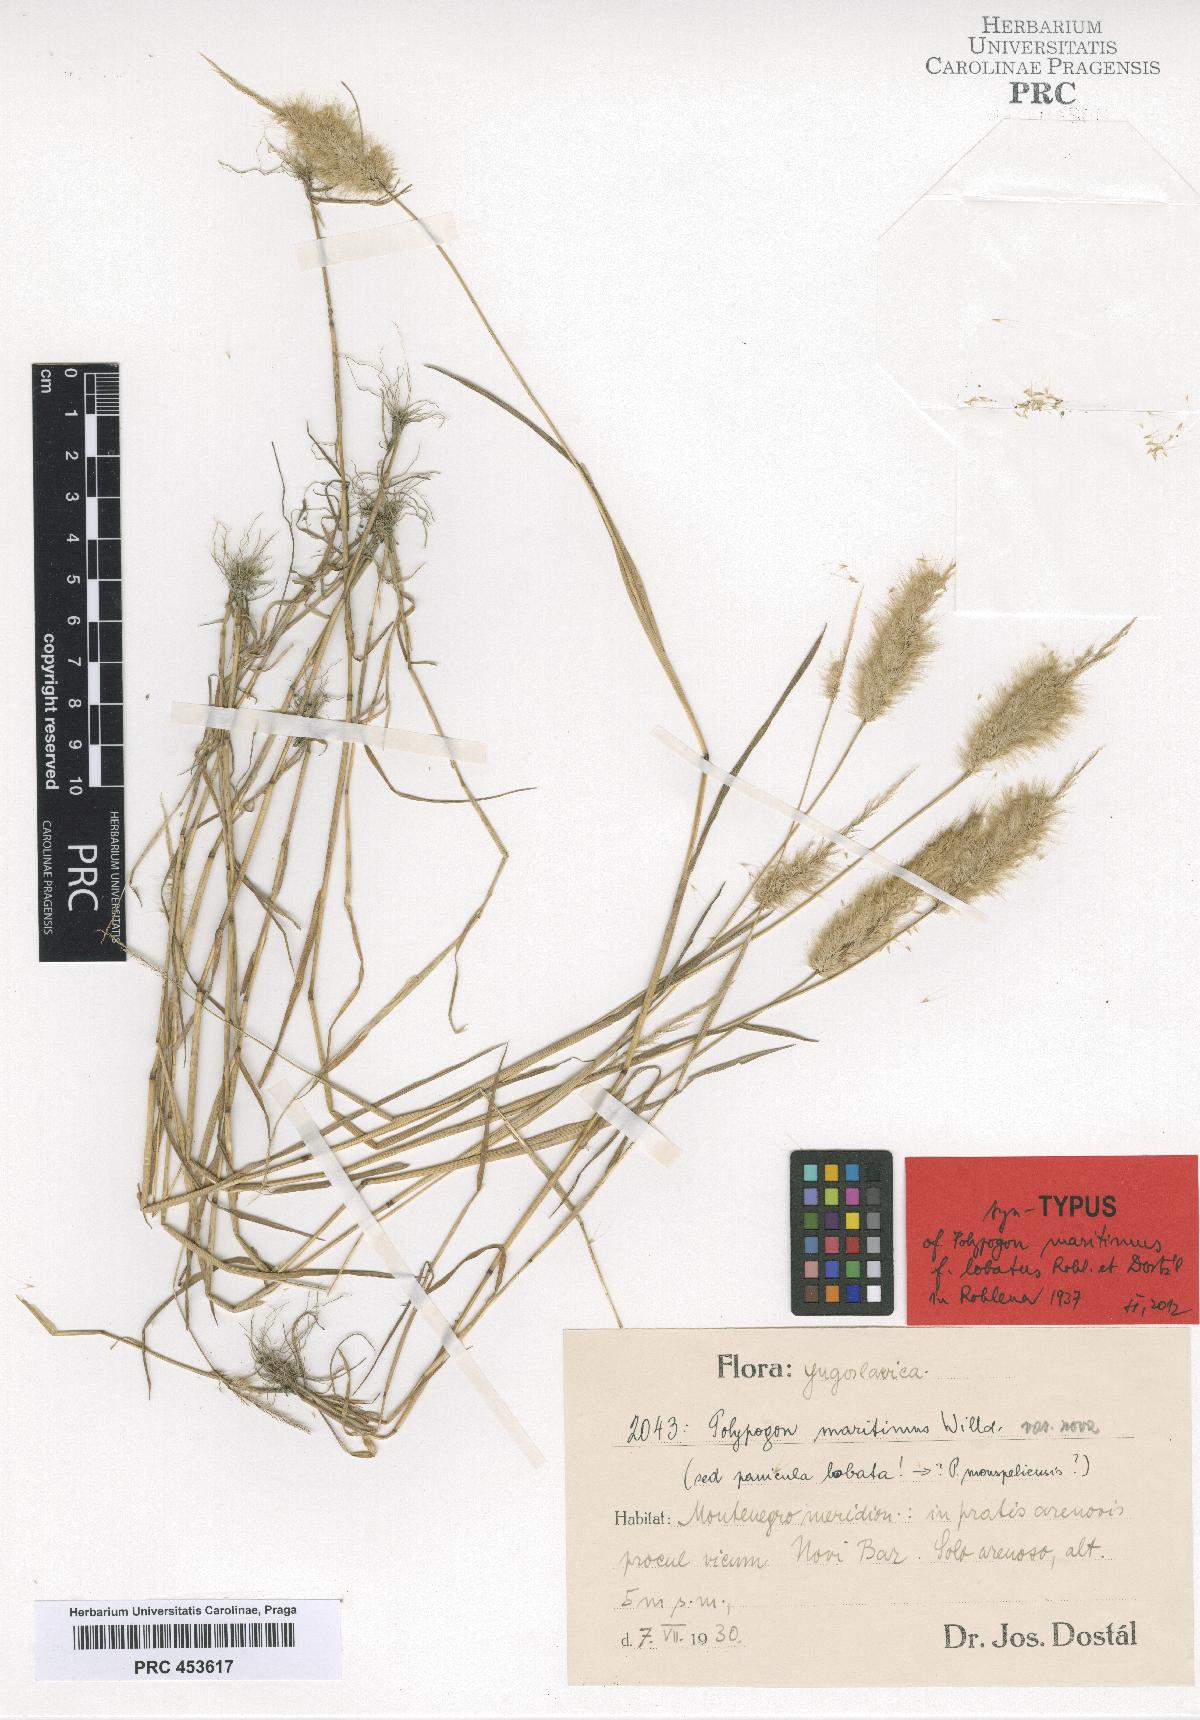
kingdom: Plantae
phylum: Tracheophyta
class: Liliopsida
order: Poales
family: Poaceae
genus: Polypogon
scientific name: Polypogon maritimus
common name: Mediterranean rabbitsfoot grass
